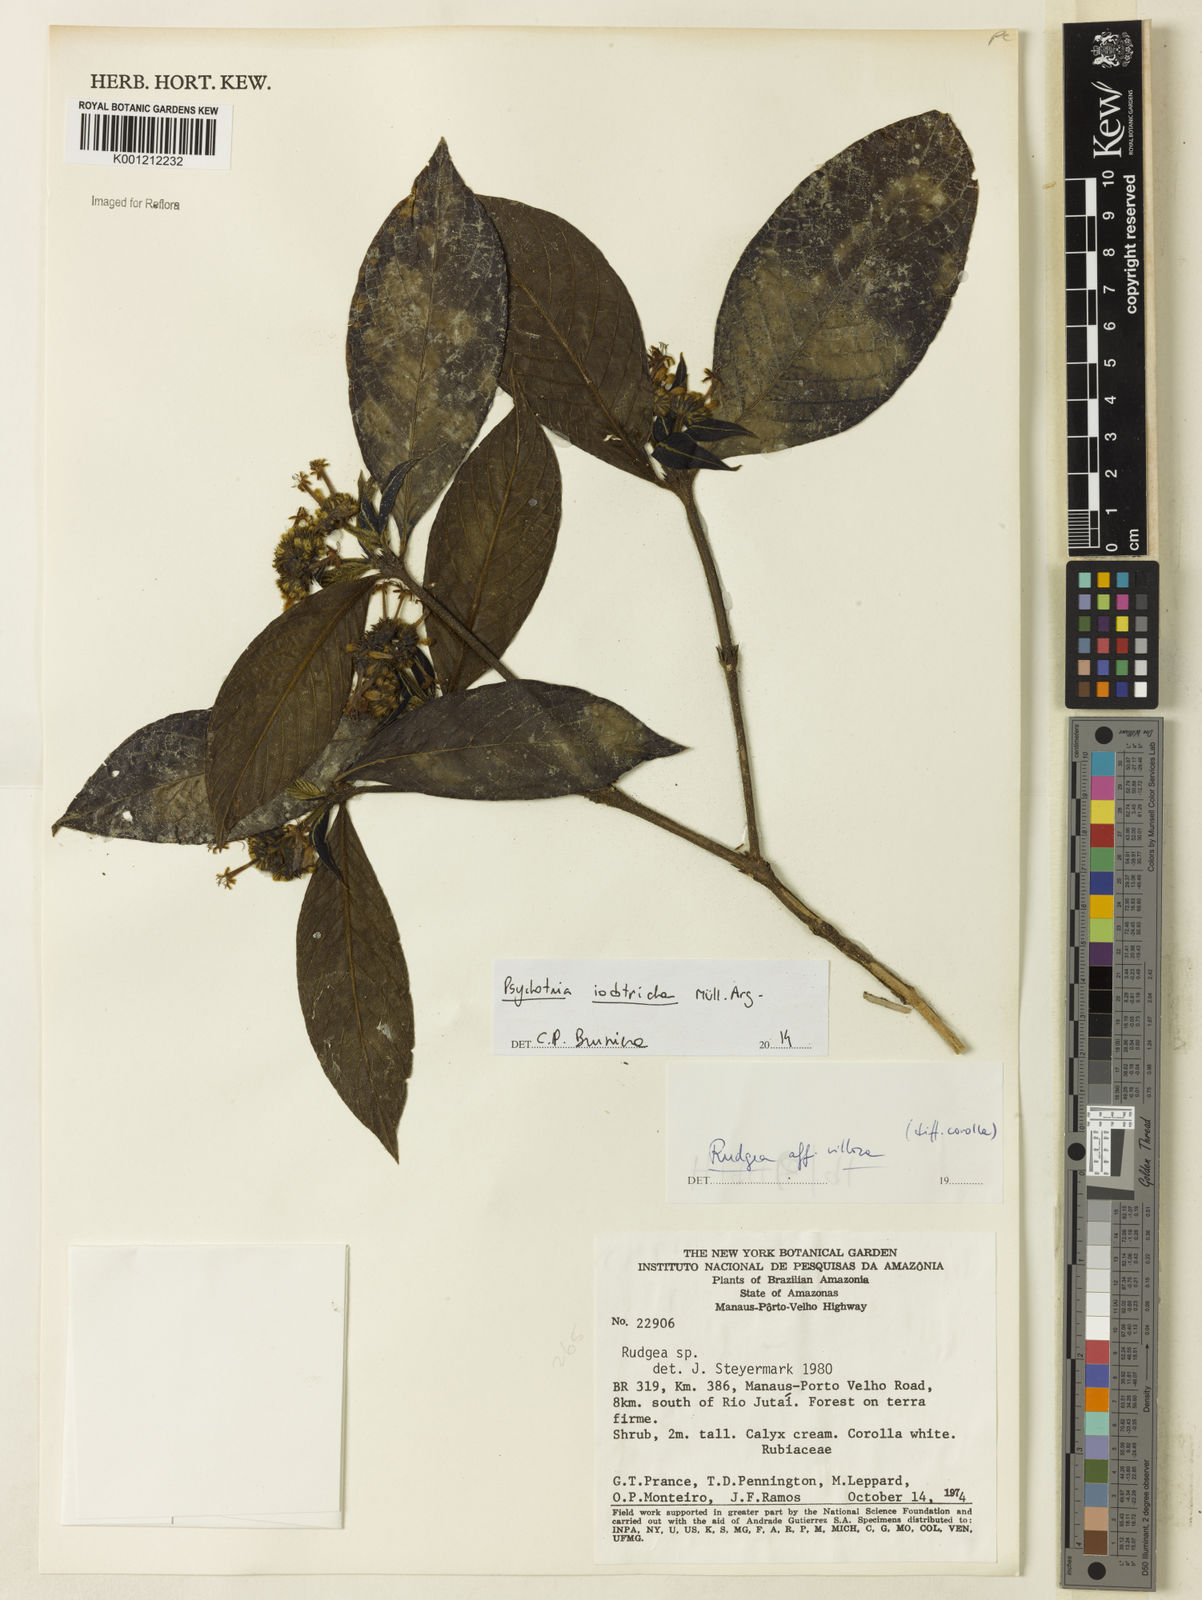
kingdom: Plantae
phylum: Tracheophyta
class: Magnoliopsida
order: Gentianales
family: Rubiaceae
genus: Psychotria
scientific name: Psychotria
